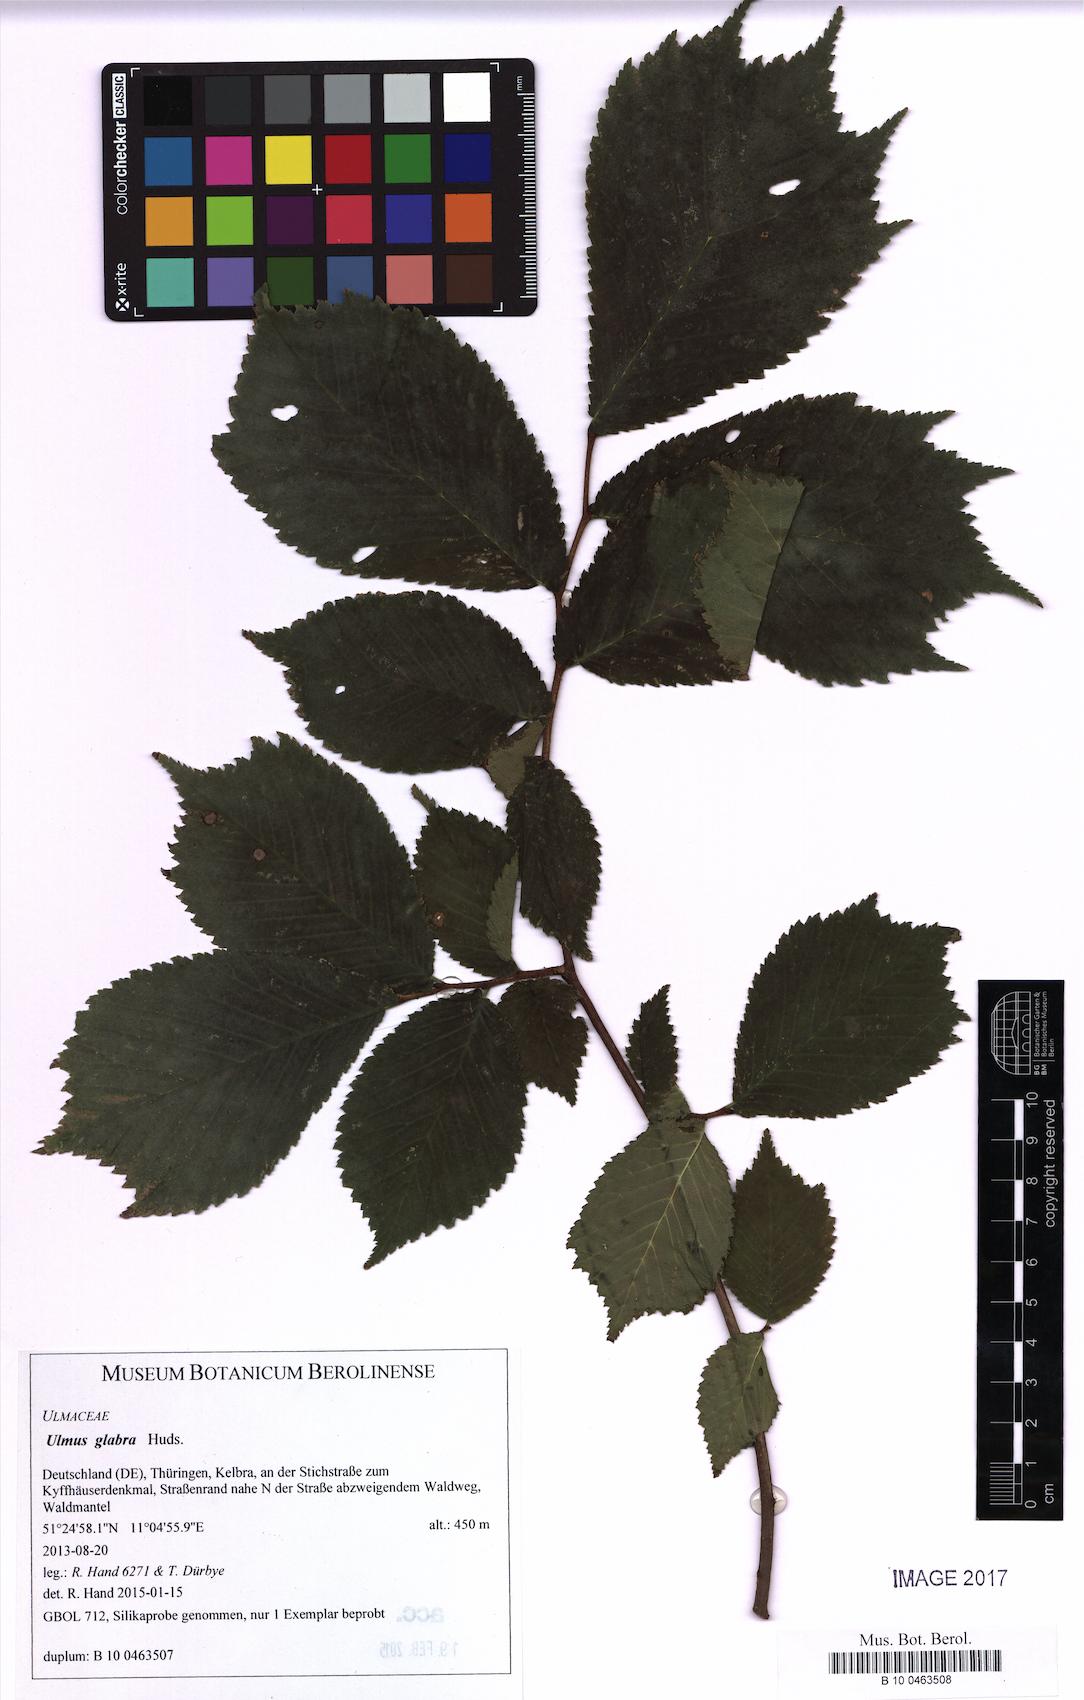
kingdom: Plantae
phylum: Tracheophyta
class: Magnoliopsida
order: Rosales
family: Ulmaceae
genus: Ulmus
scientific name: Ulmus glabra
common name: Wych elm
